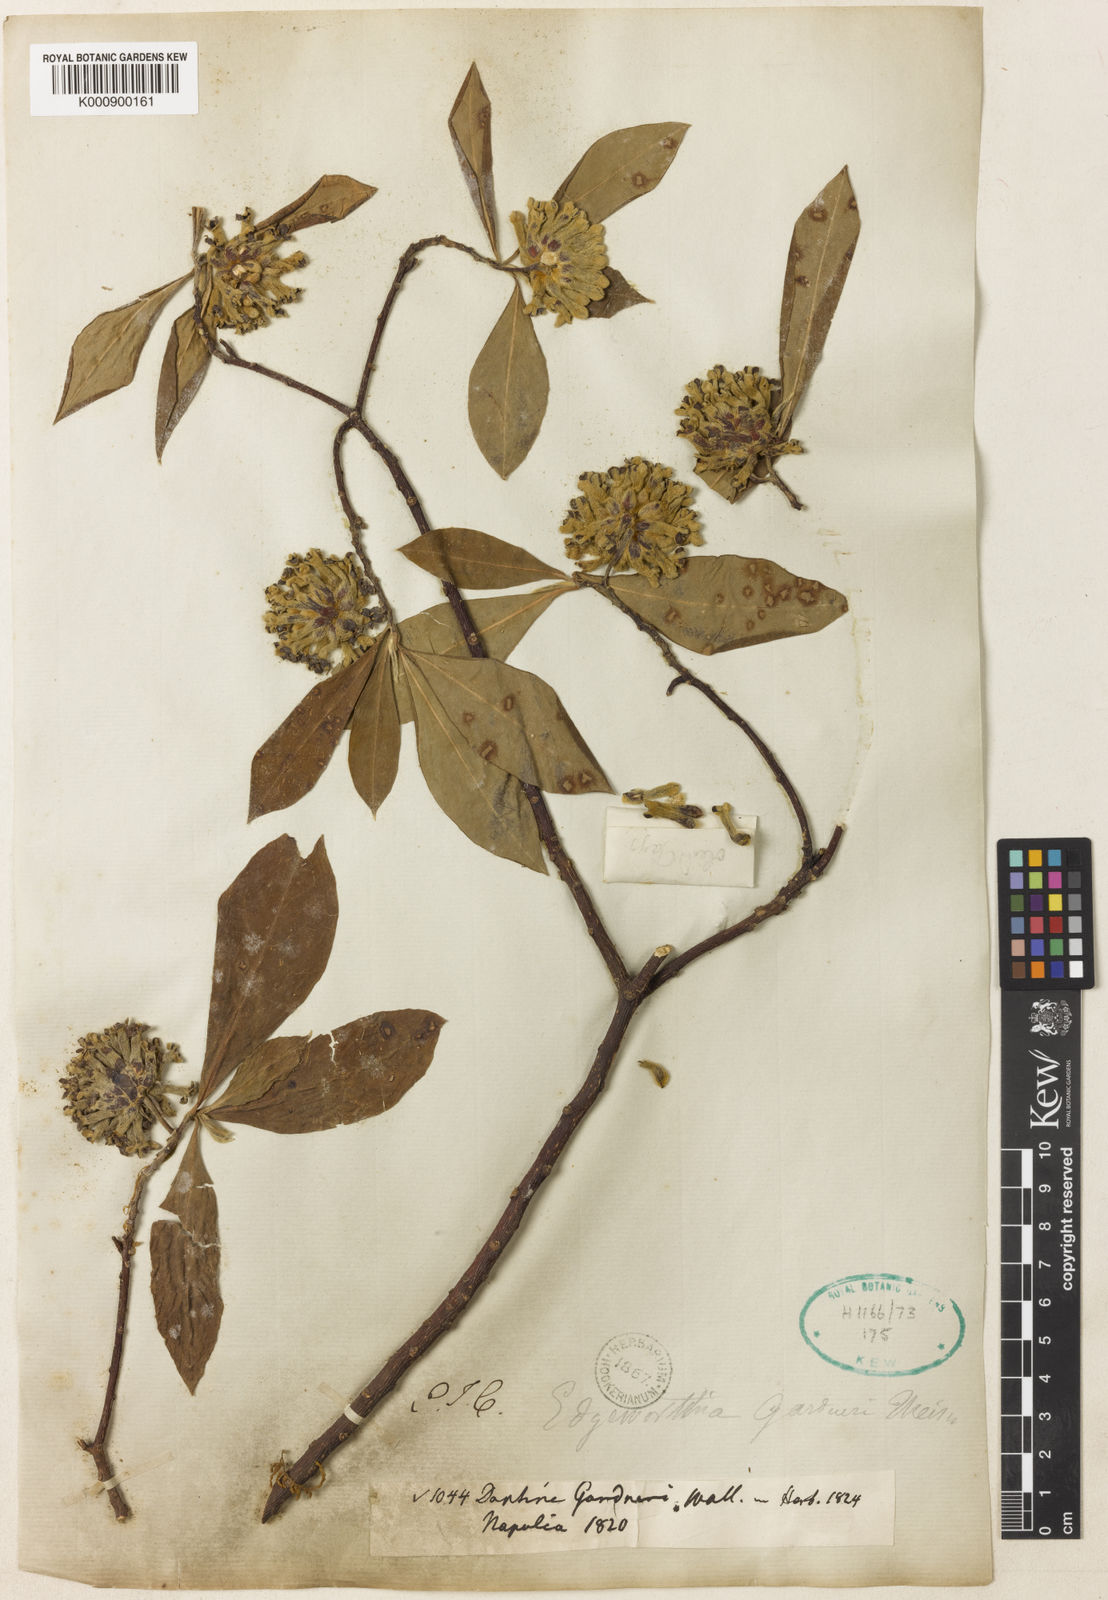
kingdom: Plantae
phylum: Tracheophyta
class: Magnoliopsida
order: Malvales
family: Thymelaeaceae
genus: Edgeworthia
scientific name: Edgeworthia gardneri
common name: Nepalese paperbush
